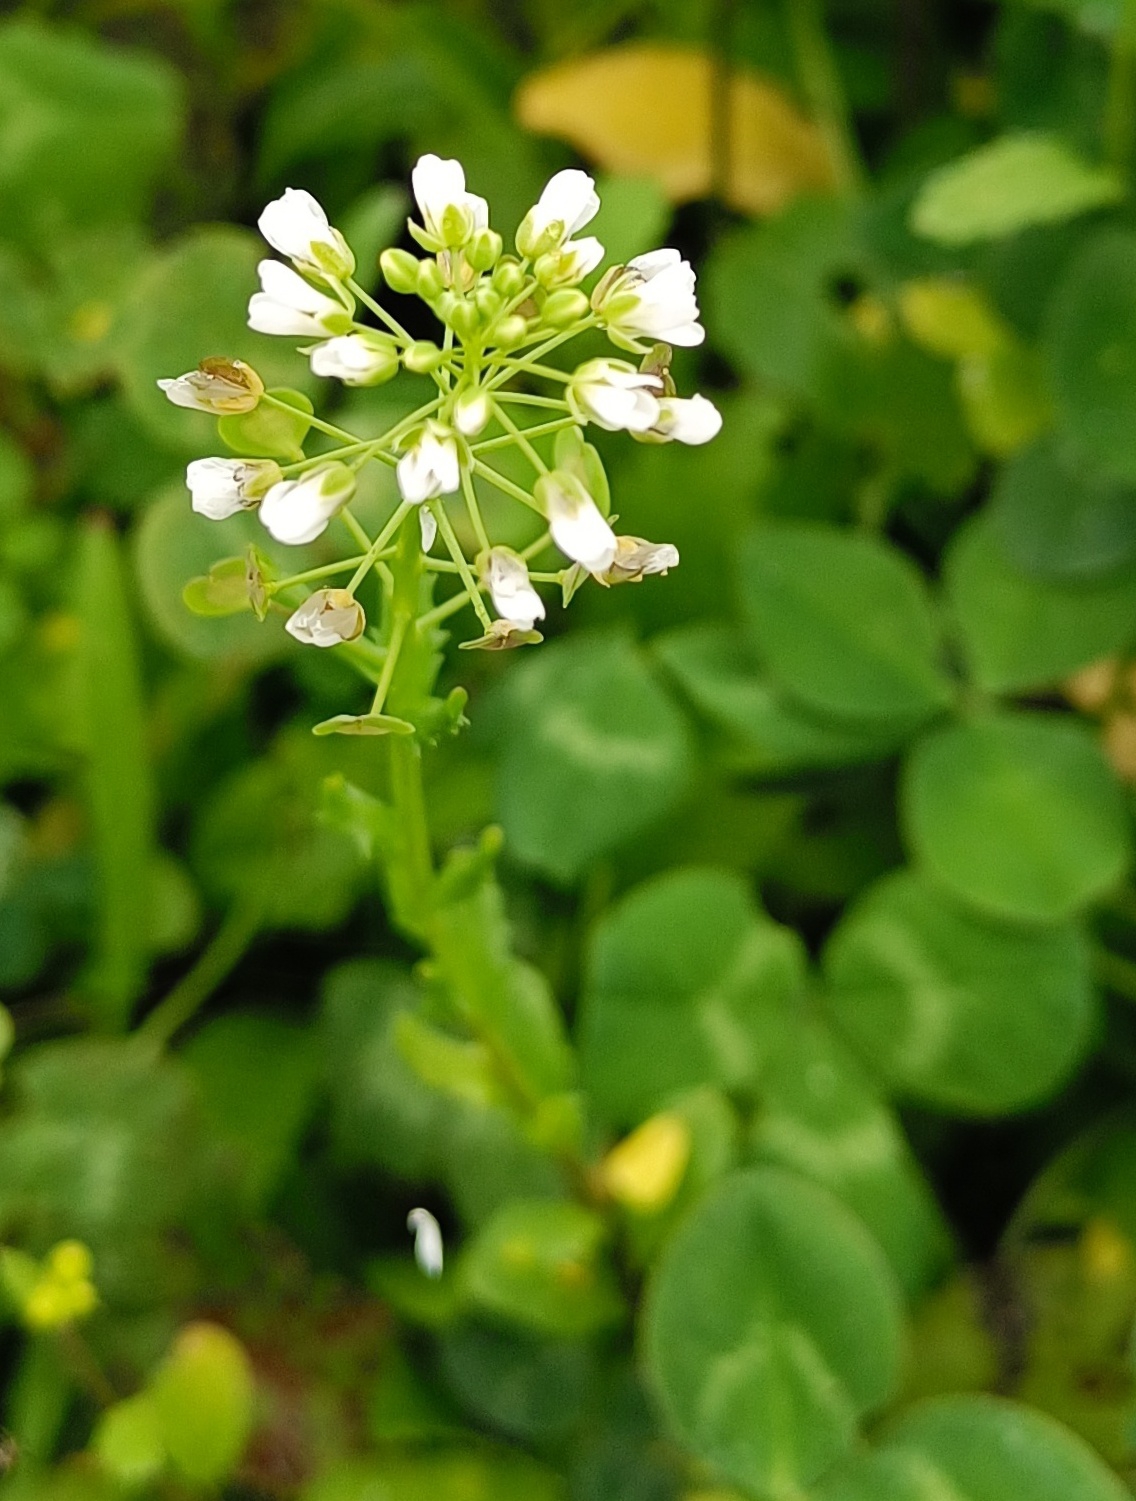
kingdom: Plantae
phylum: Tracheophyta
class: Magnoliopsida
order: Brassicales
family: Brassicaceae
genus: Thlaspi
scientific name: Thlaspi arvense
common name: Almindelig pengeurt
